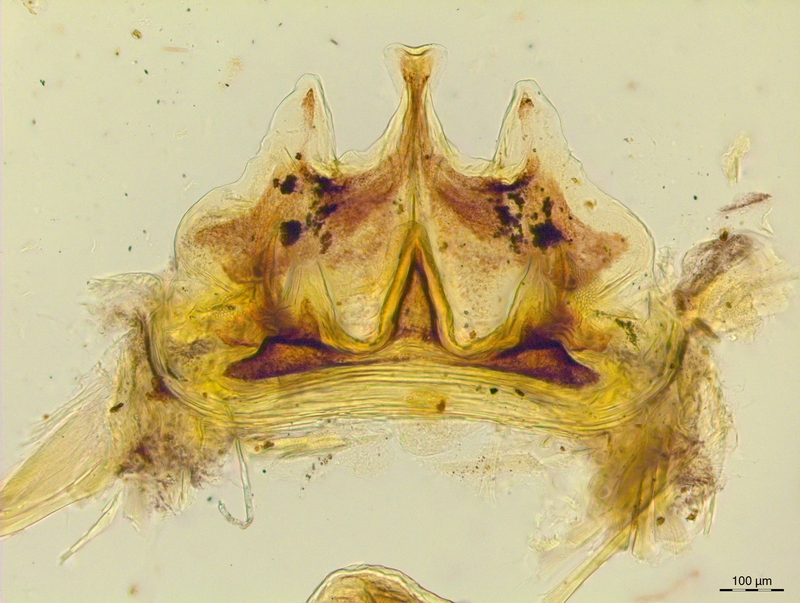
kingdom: Animalia
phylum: Arthropoda
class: Diplopoda
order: Chordeumatida
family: Craspedosomatidae
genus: Craspedosoma
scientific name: Craspedosoma rawlinsii
